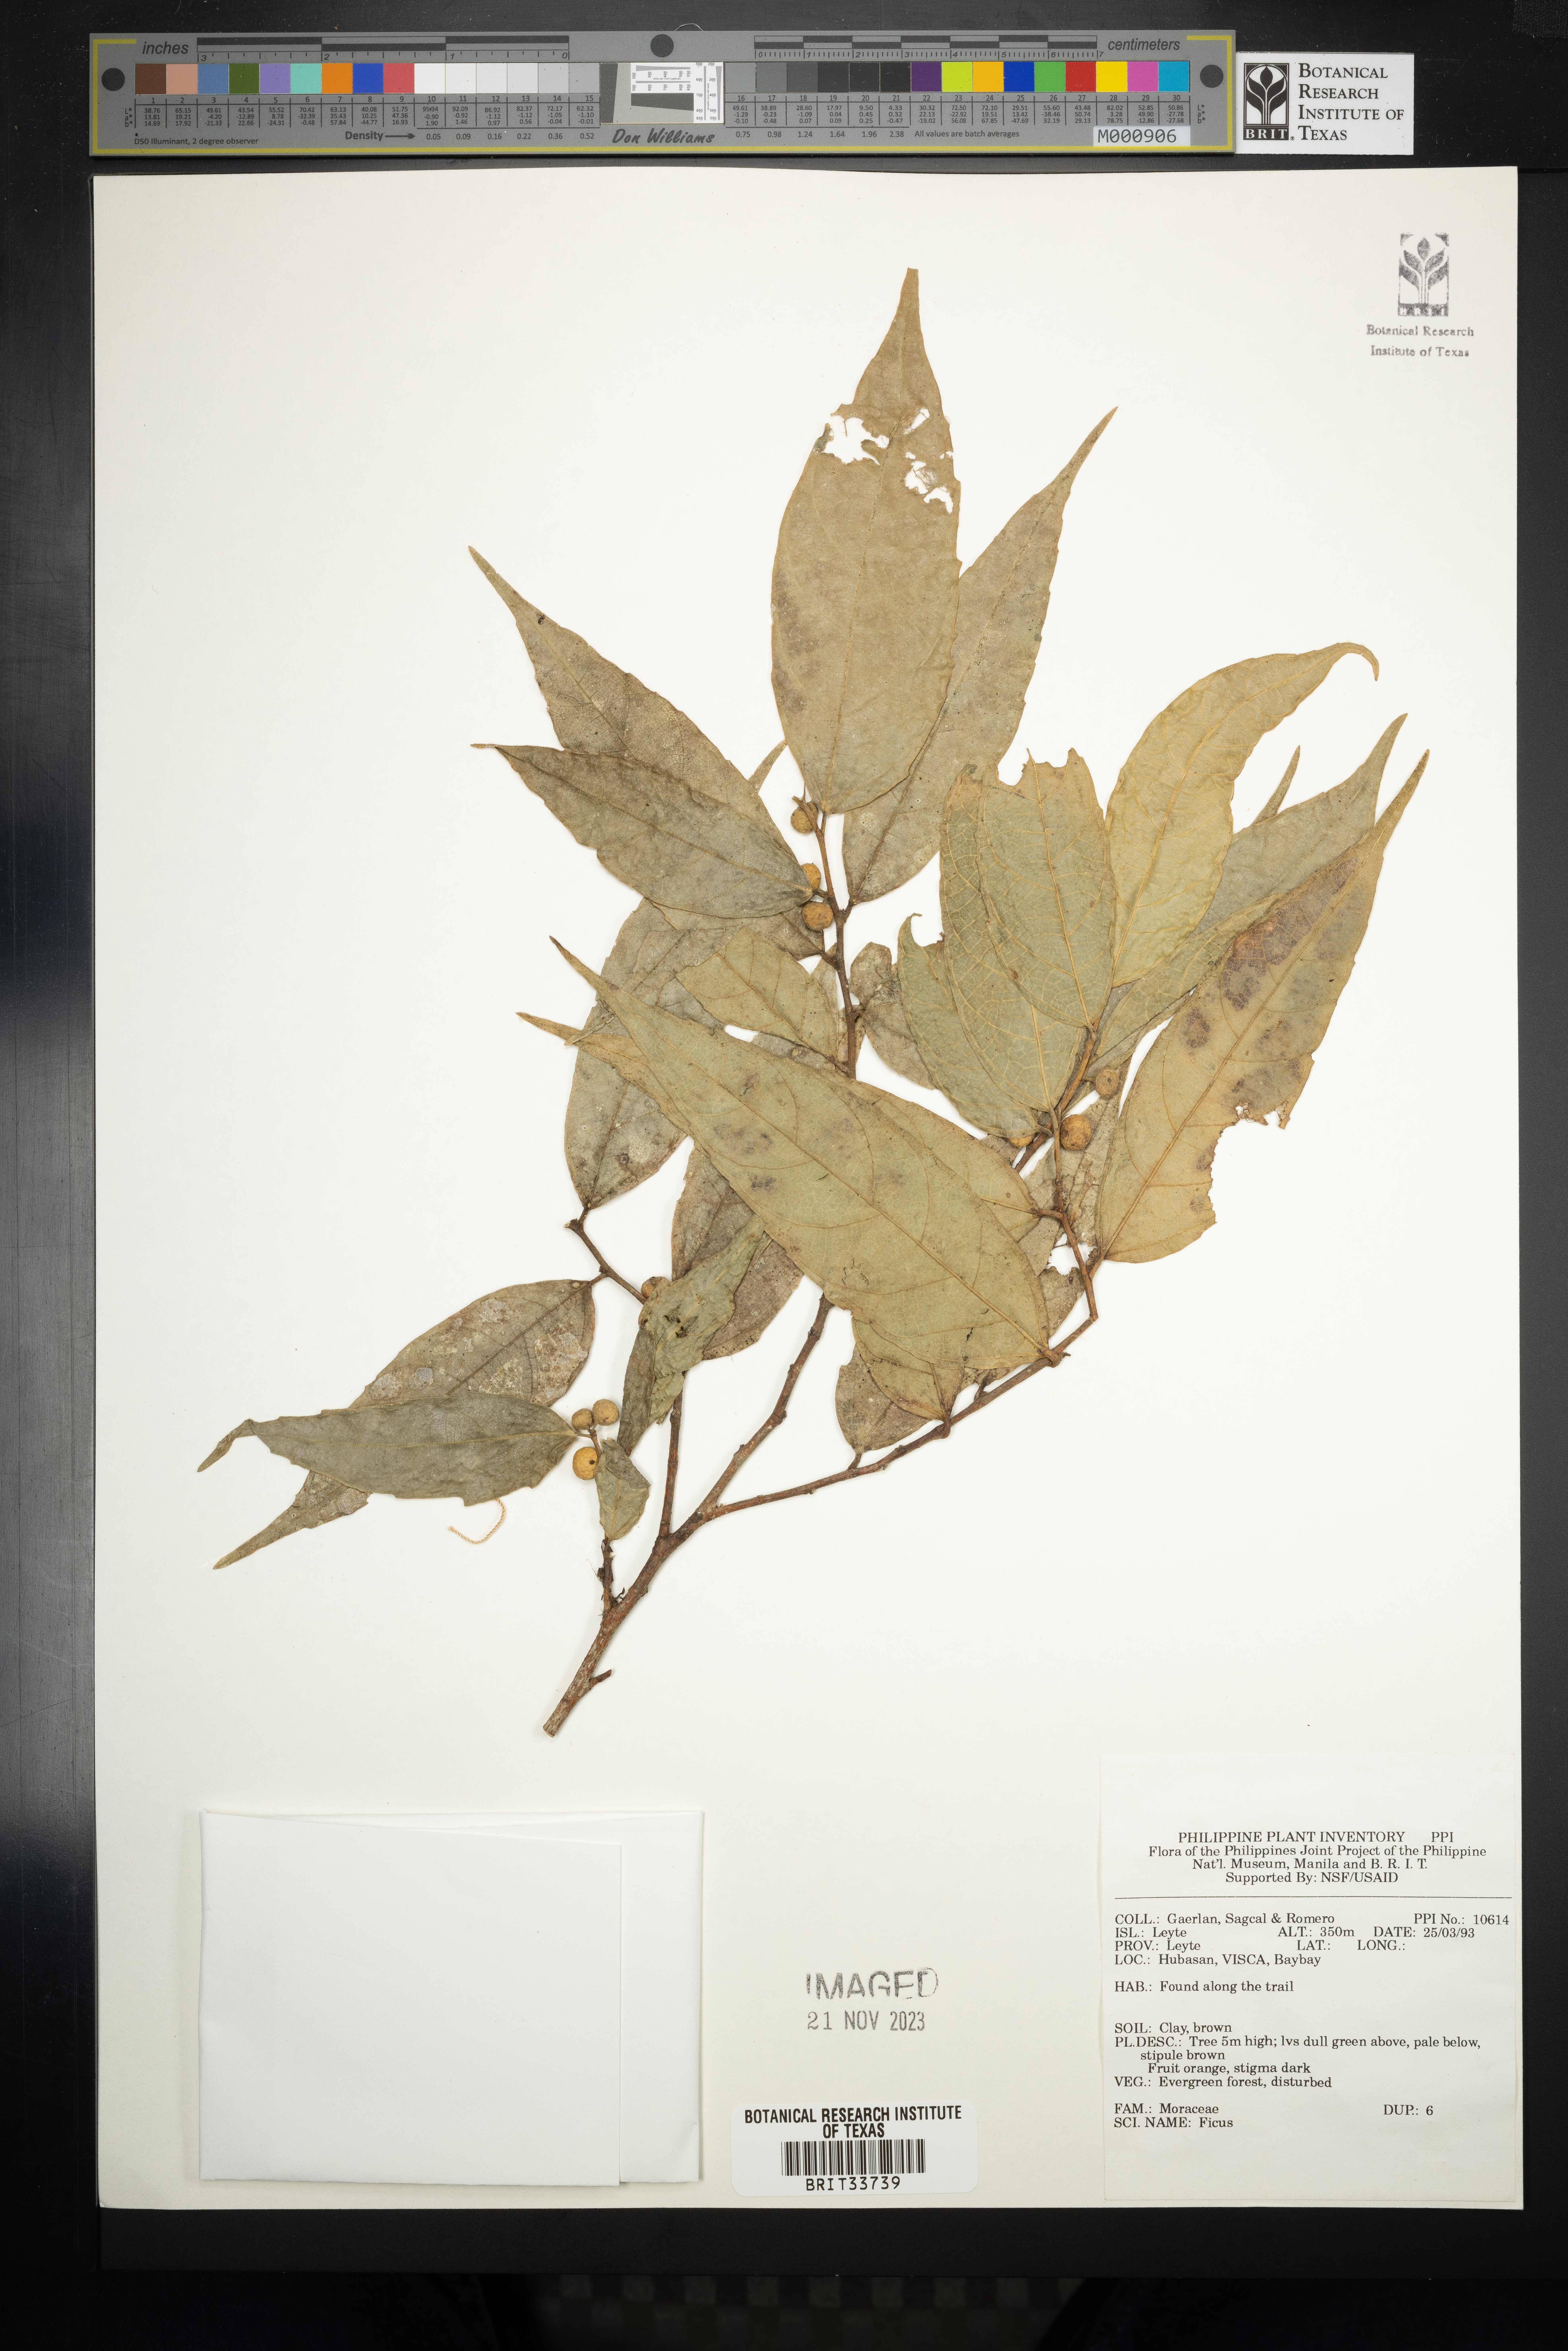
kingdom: Plantae
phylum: Tracheophyta
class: Magnoliopsida
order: Rosales
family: Moraceae
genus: Ficus
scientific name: Ficus
